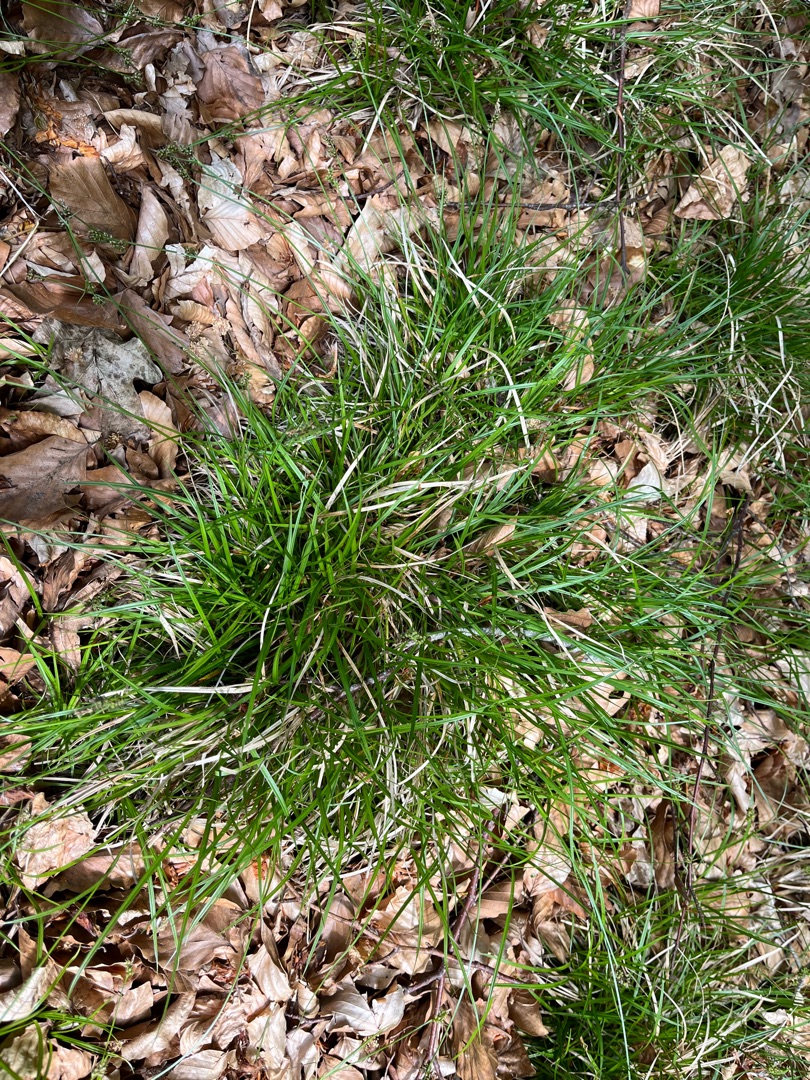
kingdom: Plantae
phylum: Tracheophyta
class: Liliopsida
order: Poales
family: Cyperaceae
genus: Carex
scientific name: Carex pilulifera
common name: Pille-star
